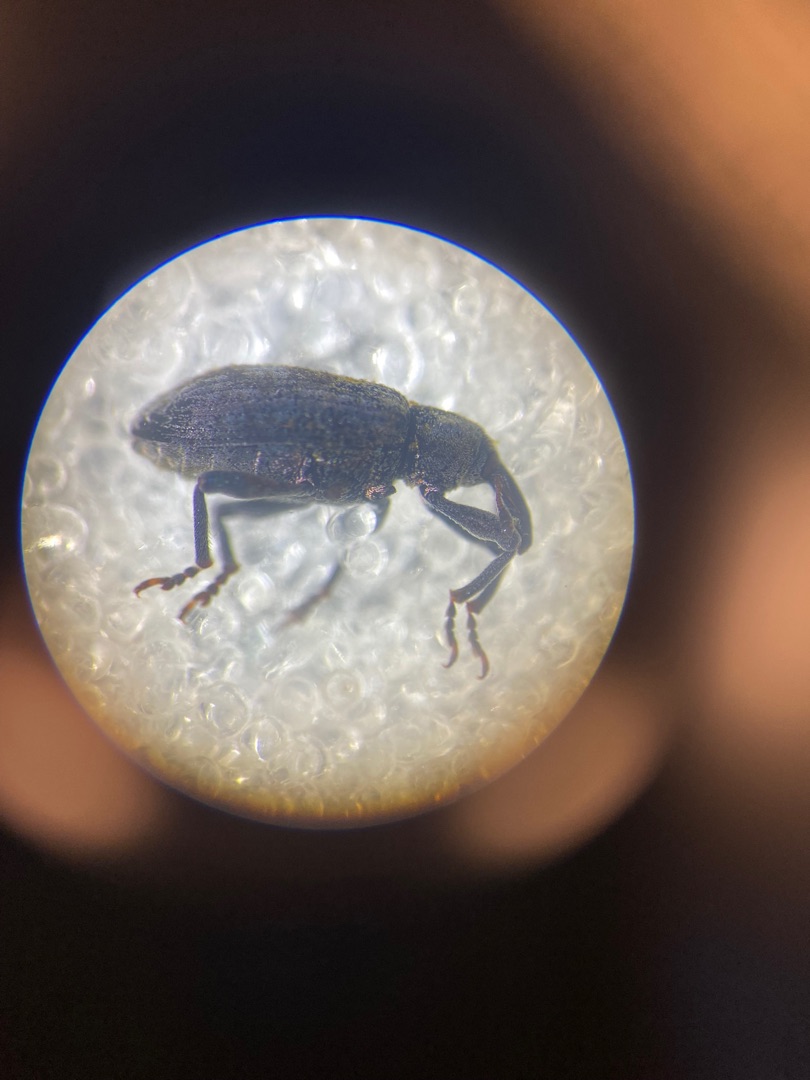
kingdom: Animalia
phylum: Arthropoda
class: Insecta
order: Coleoptera
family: Curculionidae
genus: Hypera
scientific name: Hypera rumicis
